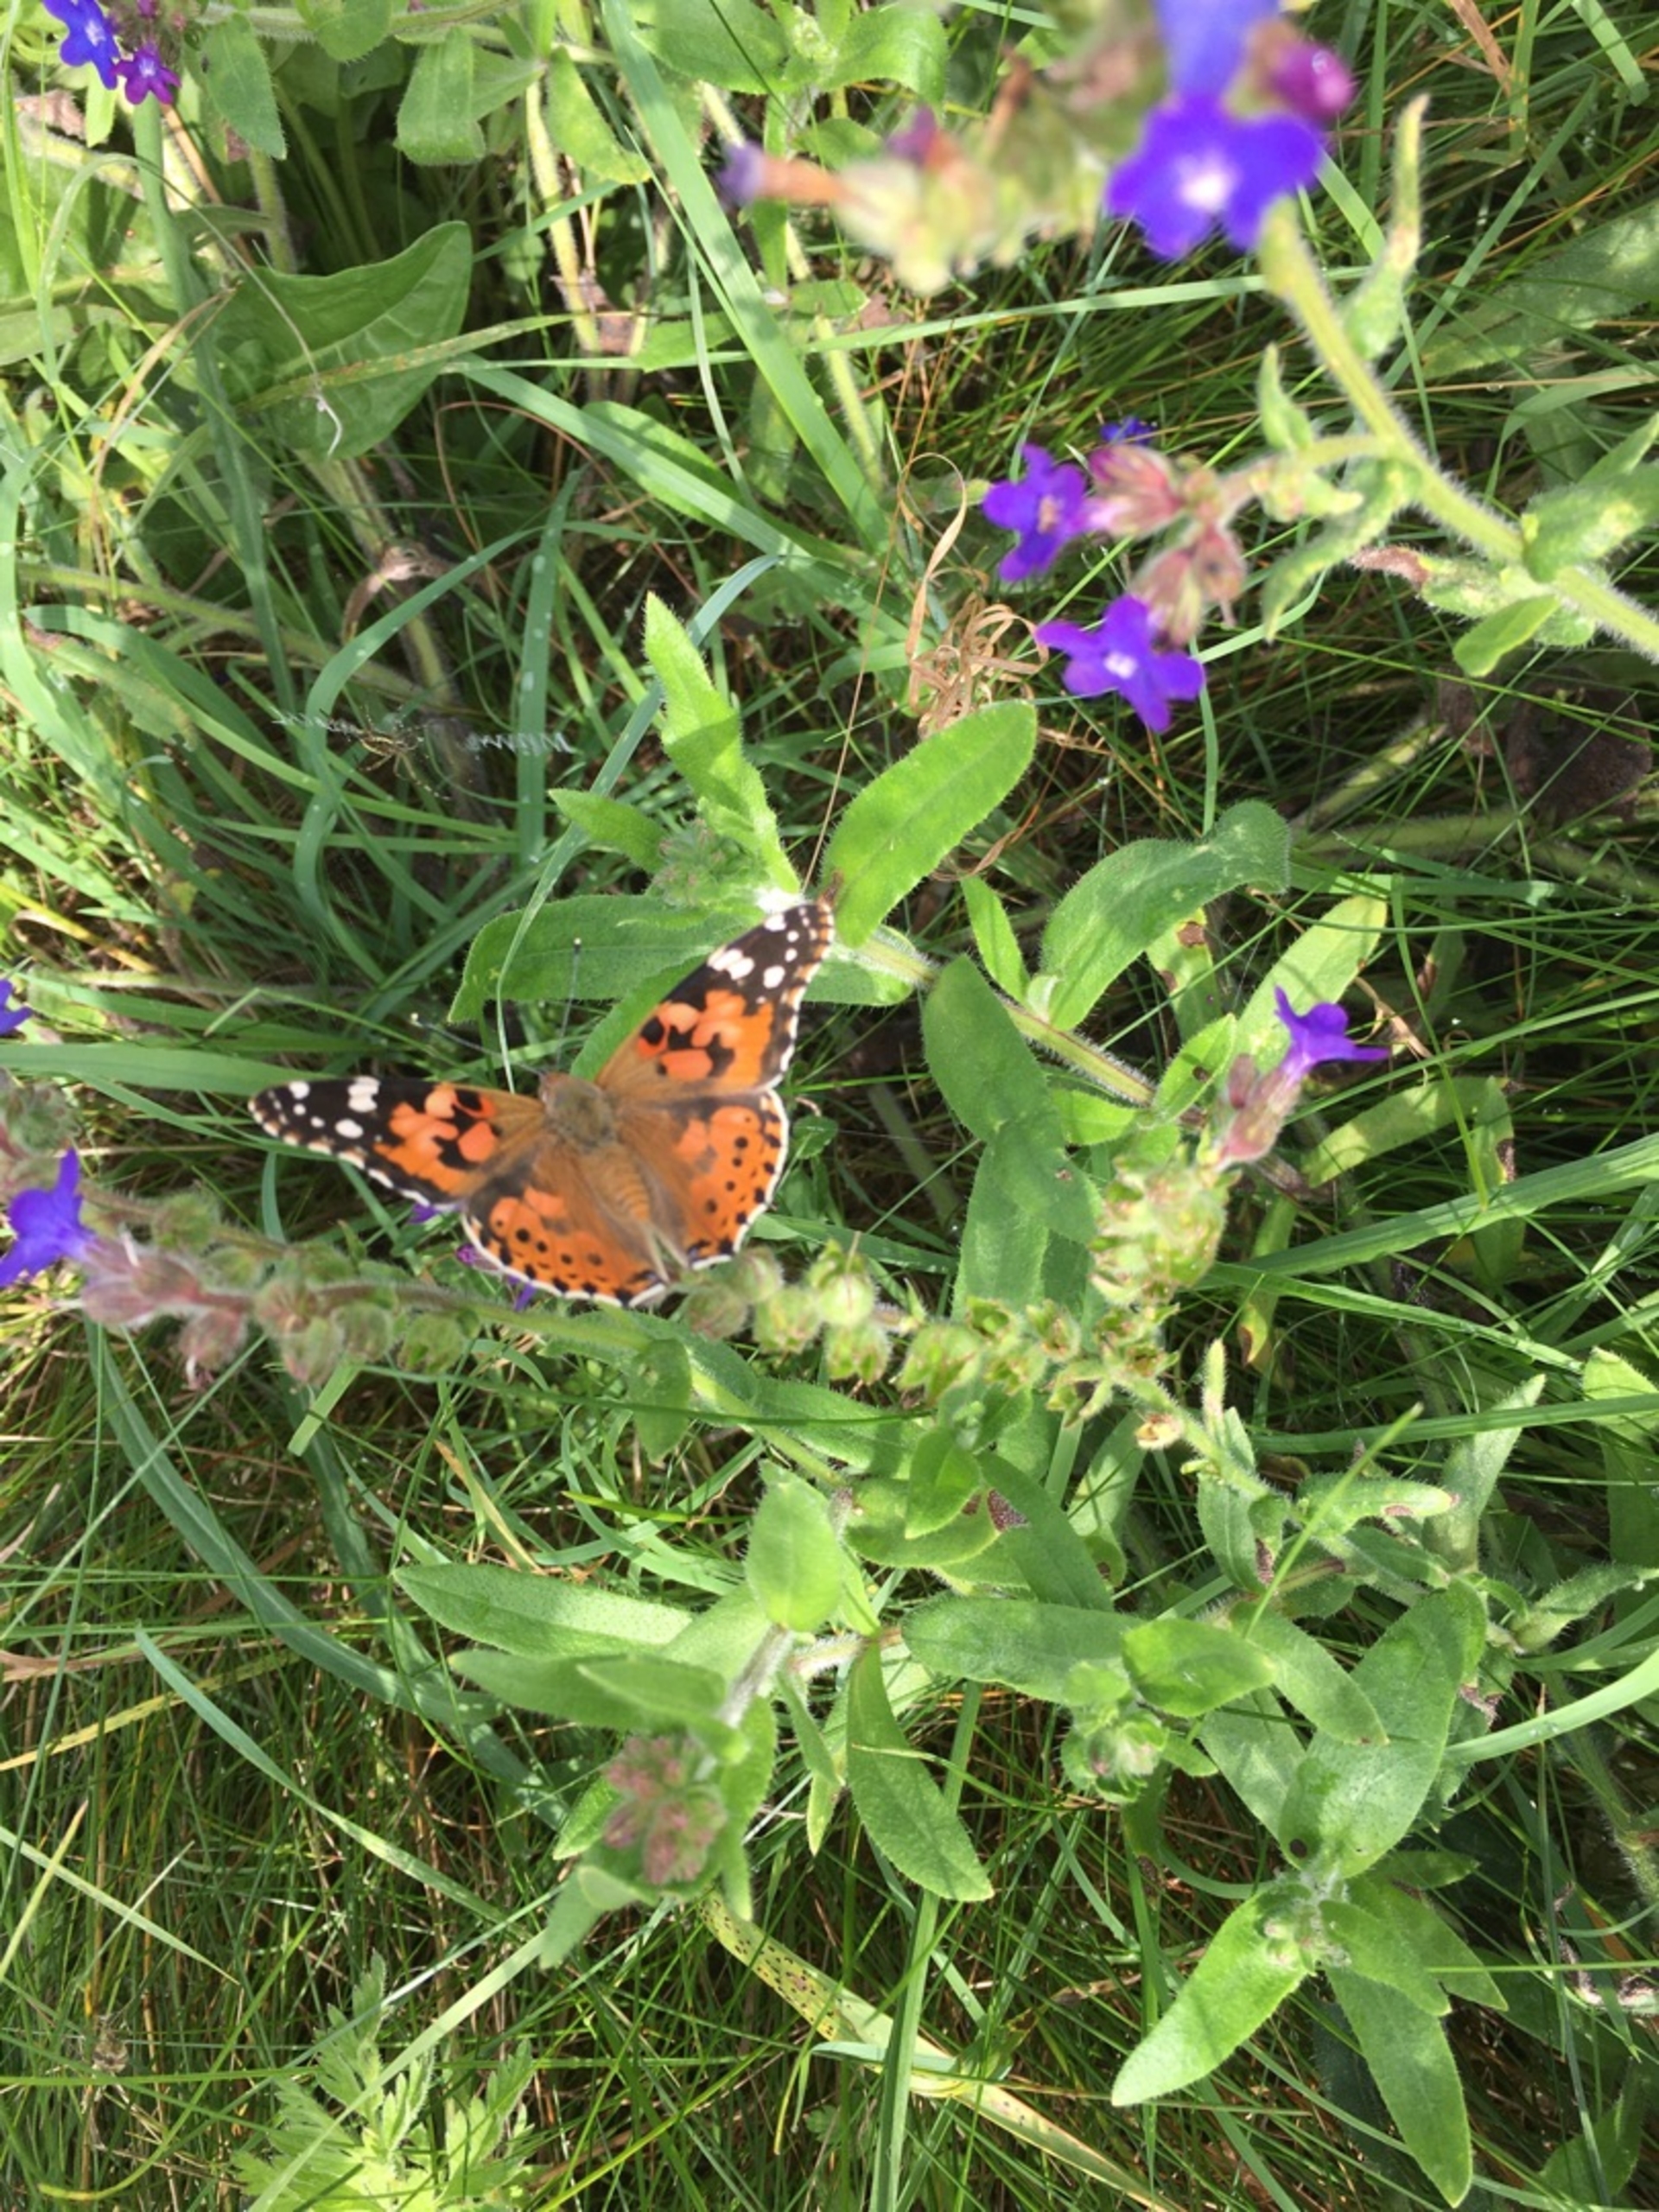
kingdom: Animalia
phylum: Arthropoda
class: Insecta
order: Lepidoptera
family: Nymphalidae
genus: Vanessa
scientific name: Vanessa cardui
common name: Tidselsommerfugl
